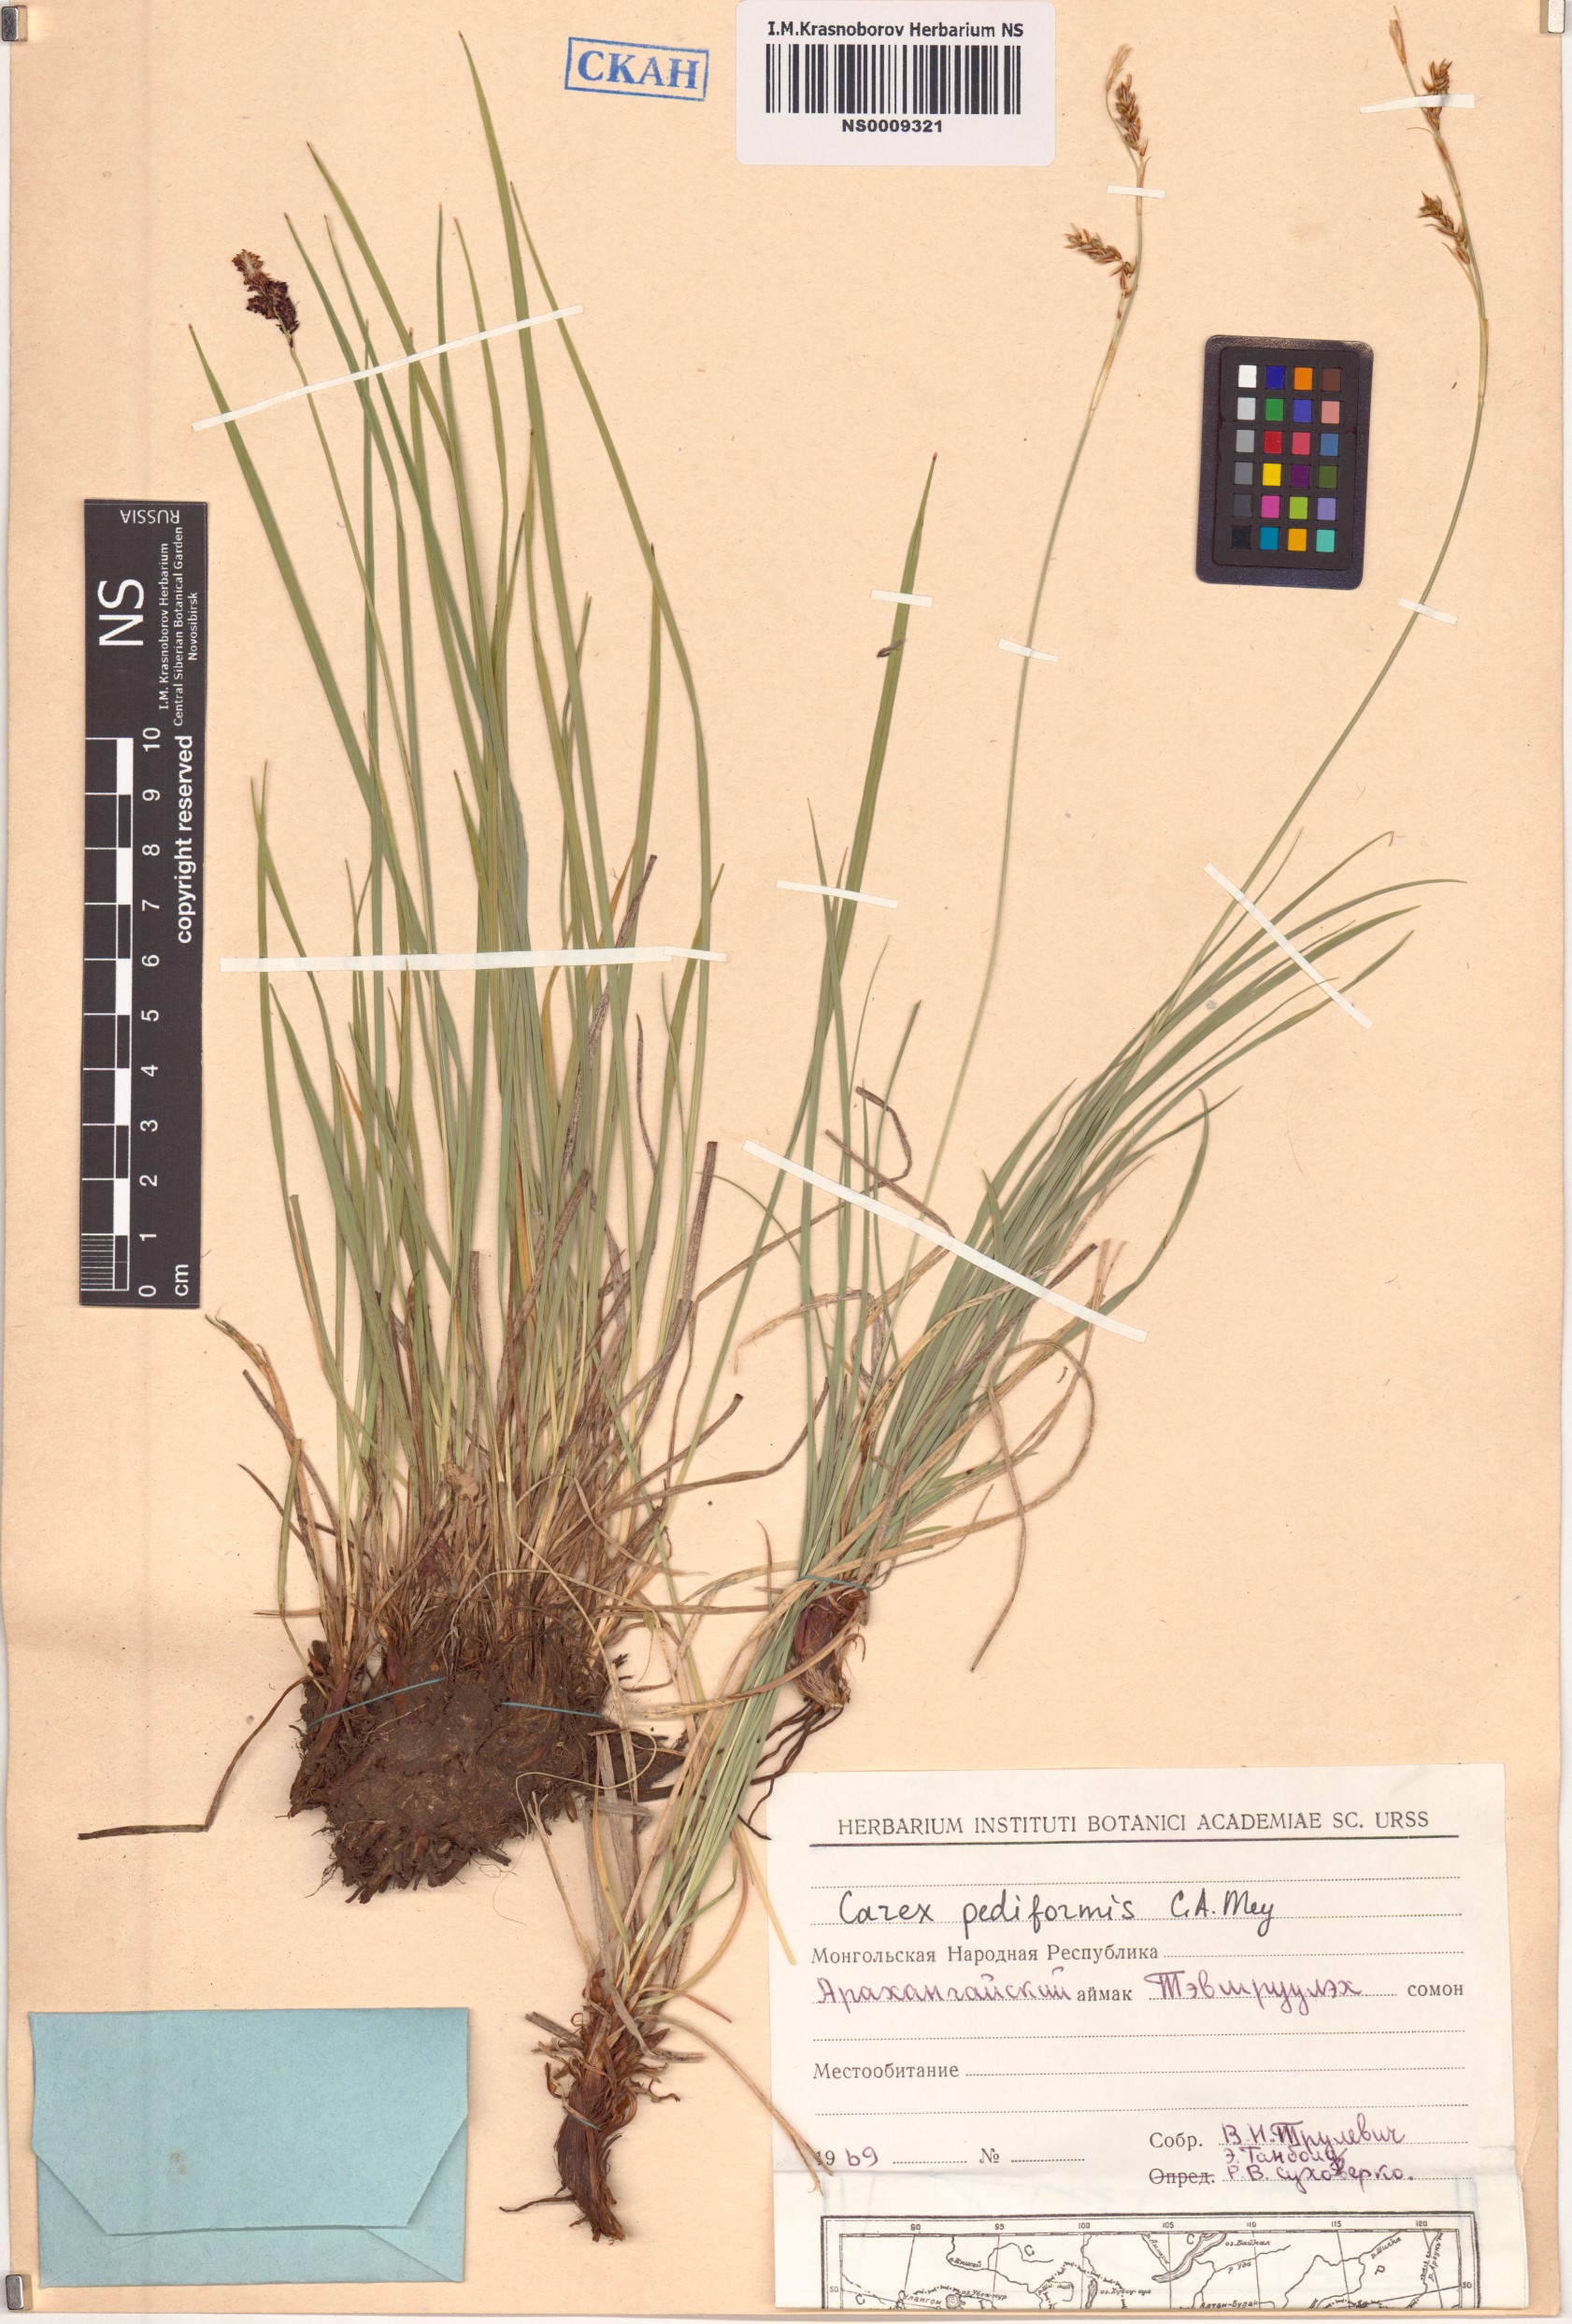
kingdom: Plantae
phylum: Tracheophyta
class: Liliopsida
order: Poales
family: Cyperaceae
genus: Carex
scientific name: Carex pediformis
